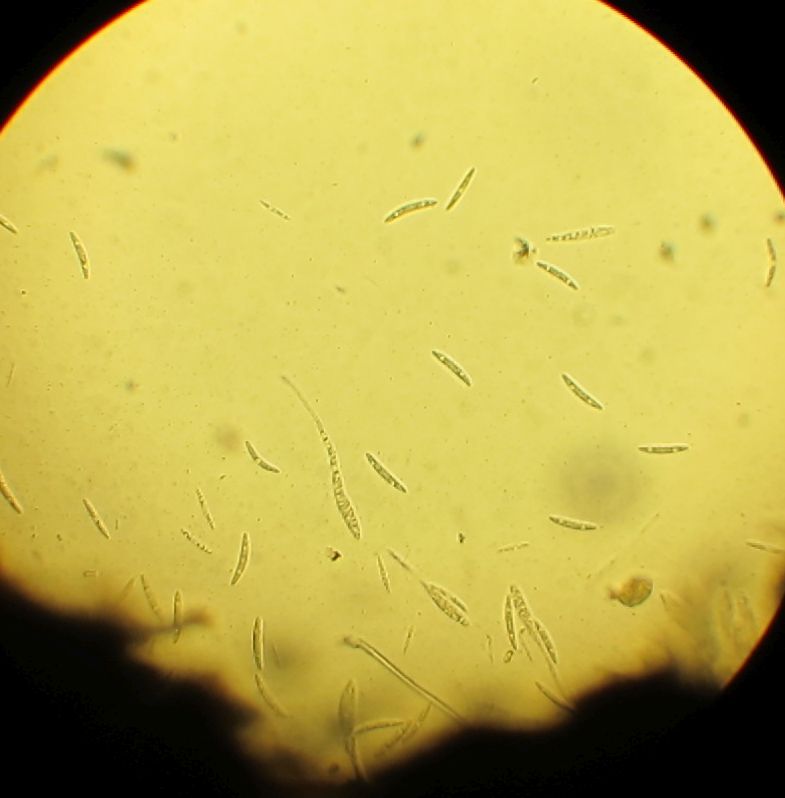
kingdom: Fungi
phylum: Ascomycota
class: Sordariomycetes
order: Coronophorales
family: Bertiaceae
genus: Bertia
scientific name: Bertia moriformis
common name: almindelig morbærkerne
